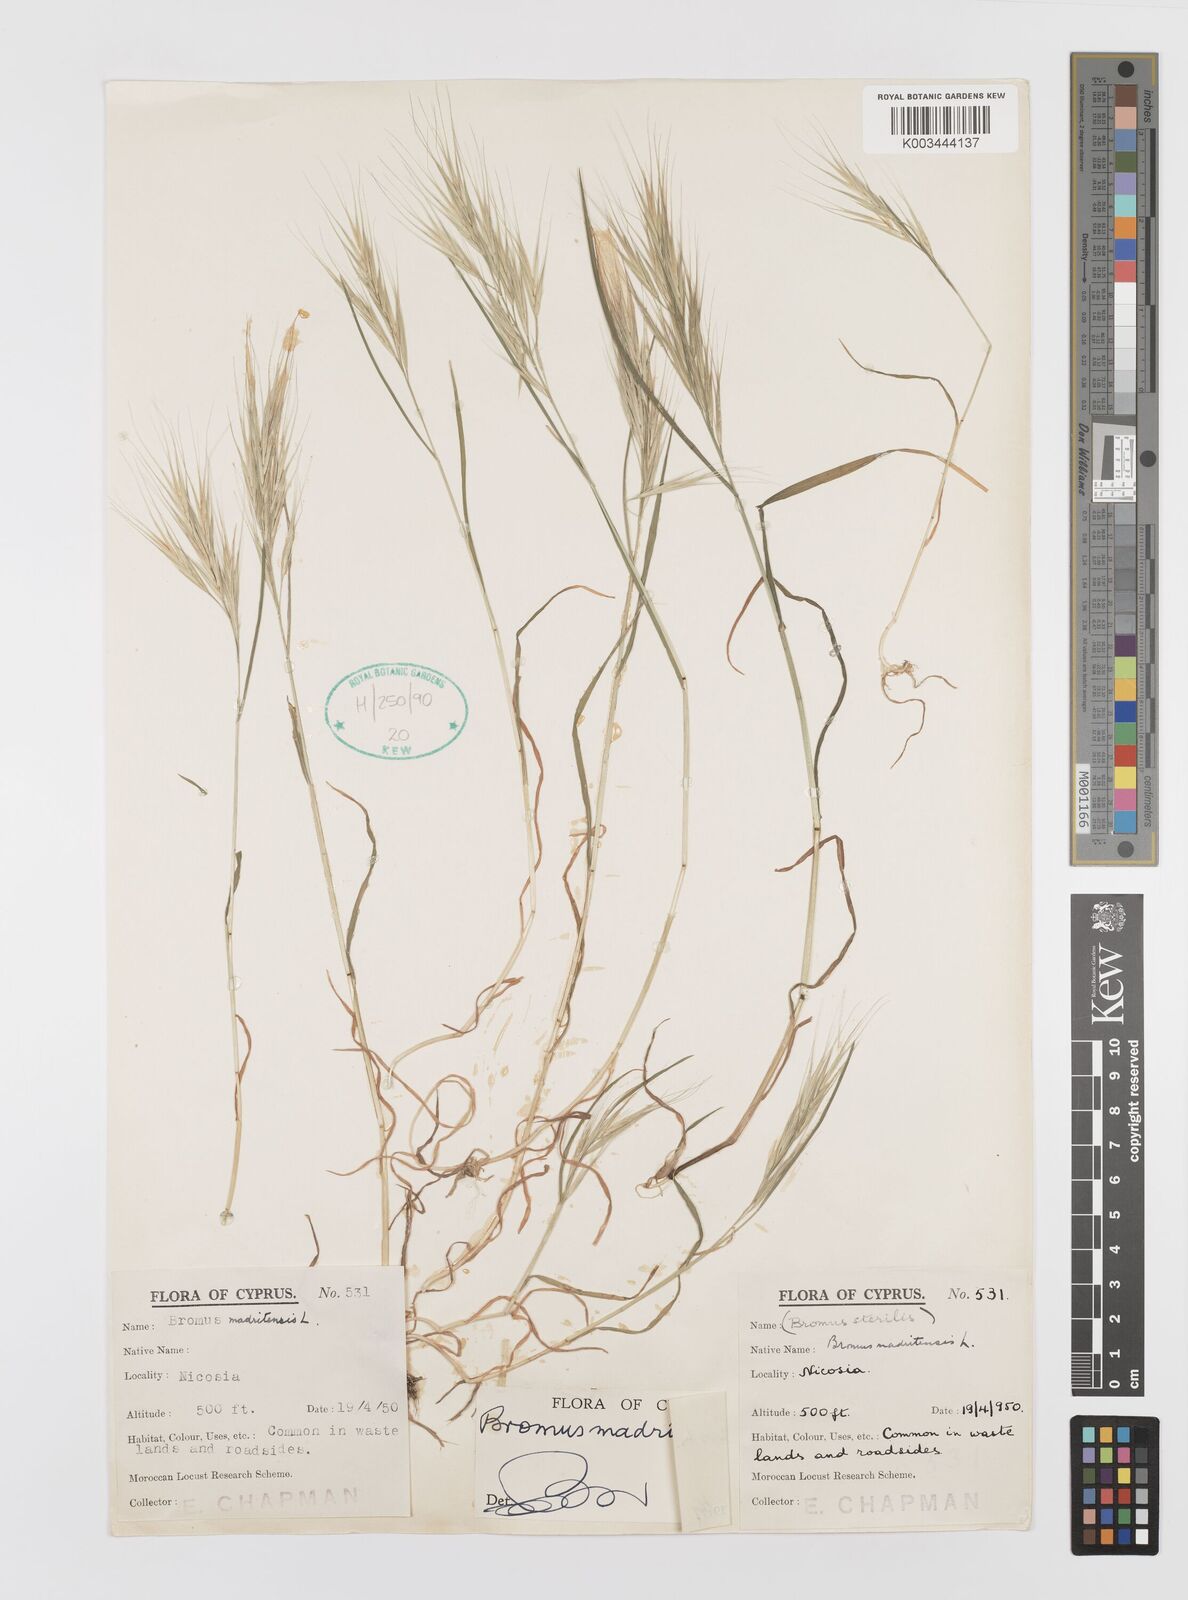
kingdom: Plantae
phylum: Tracheophyta
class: Liliopsida
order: Poales
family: Poaceae
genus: Bromus
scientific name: Bromus madritensis
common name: Compact brome
